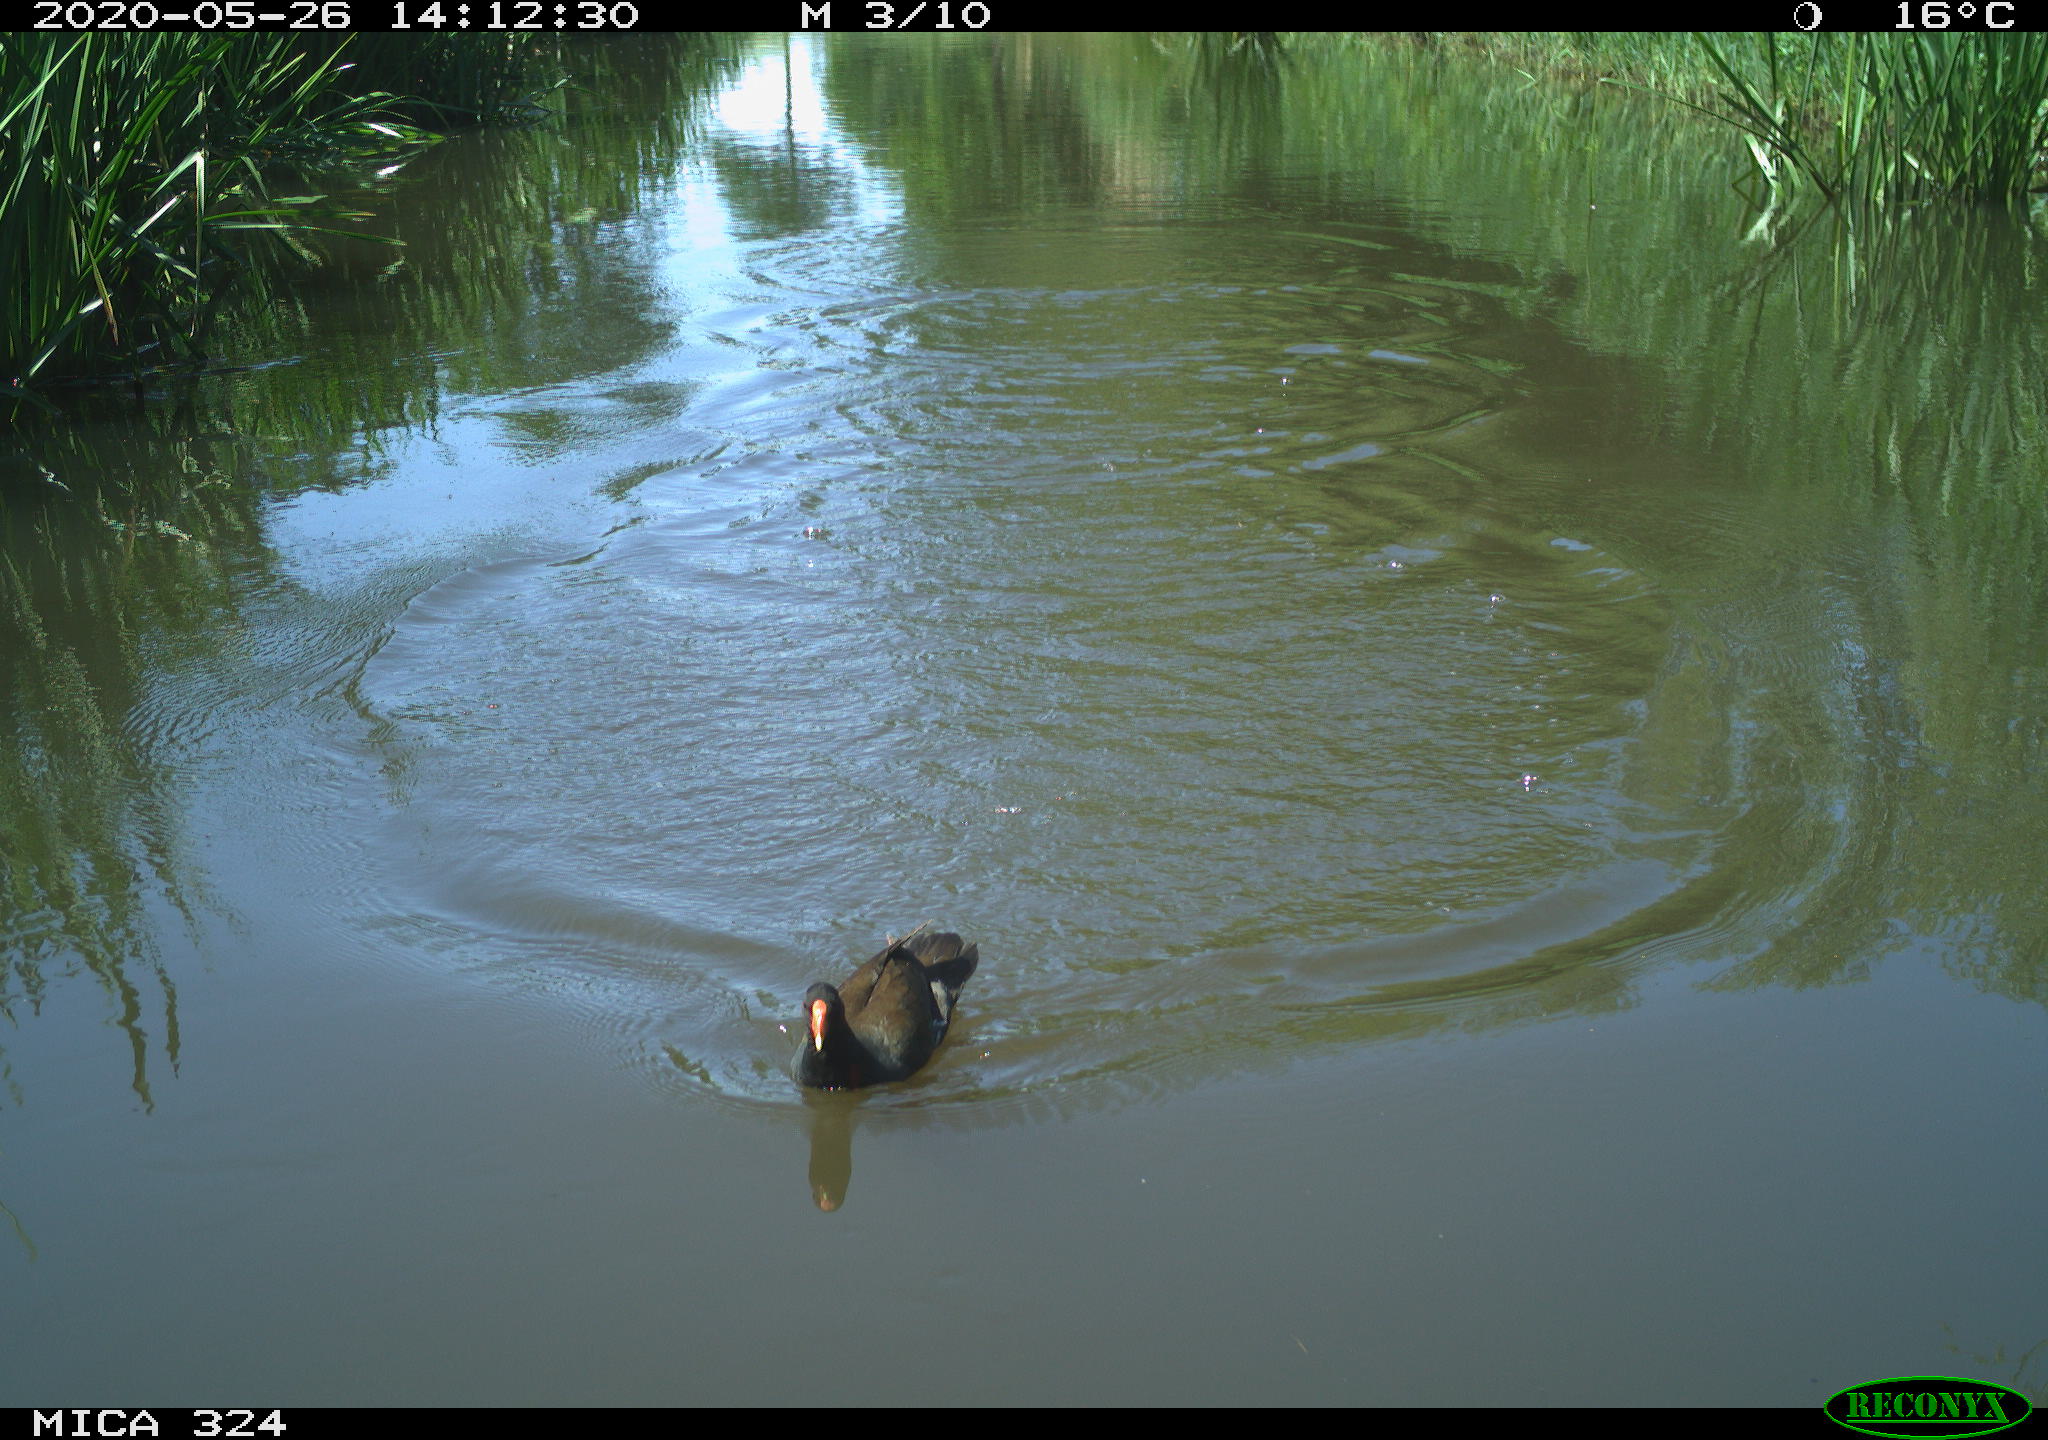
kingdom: Animalia
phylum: Chordata
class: Aves
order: Gruiformes
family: Rallidae
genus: Gallinula
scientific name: Gallinula chloropus
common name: Common moorhen
